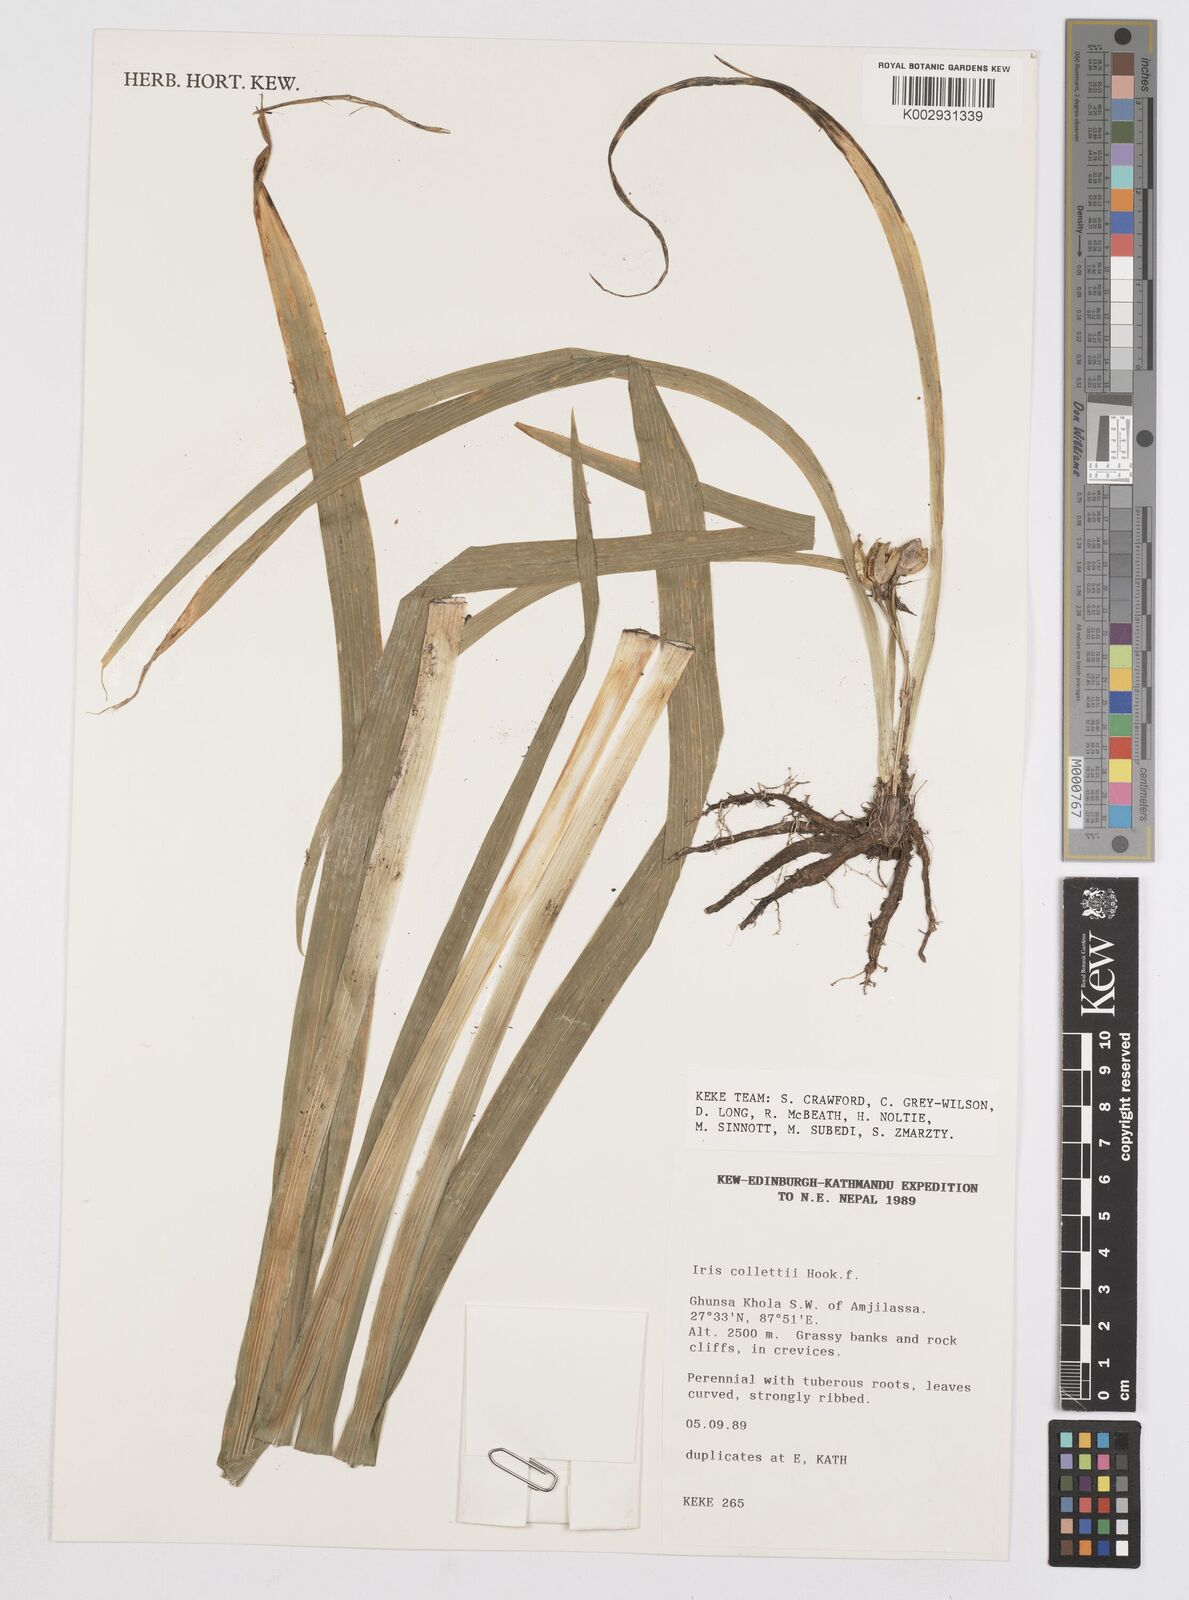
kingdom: Plantae
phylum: Tracheophyta
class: Liliopsida
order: Asparagales
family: Iridaceae
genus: Iris
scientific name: Iris collettii
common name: Plateau iris
